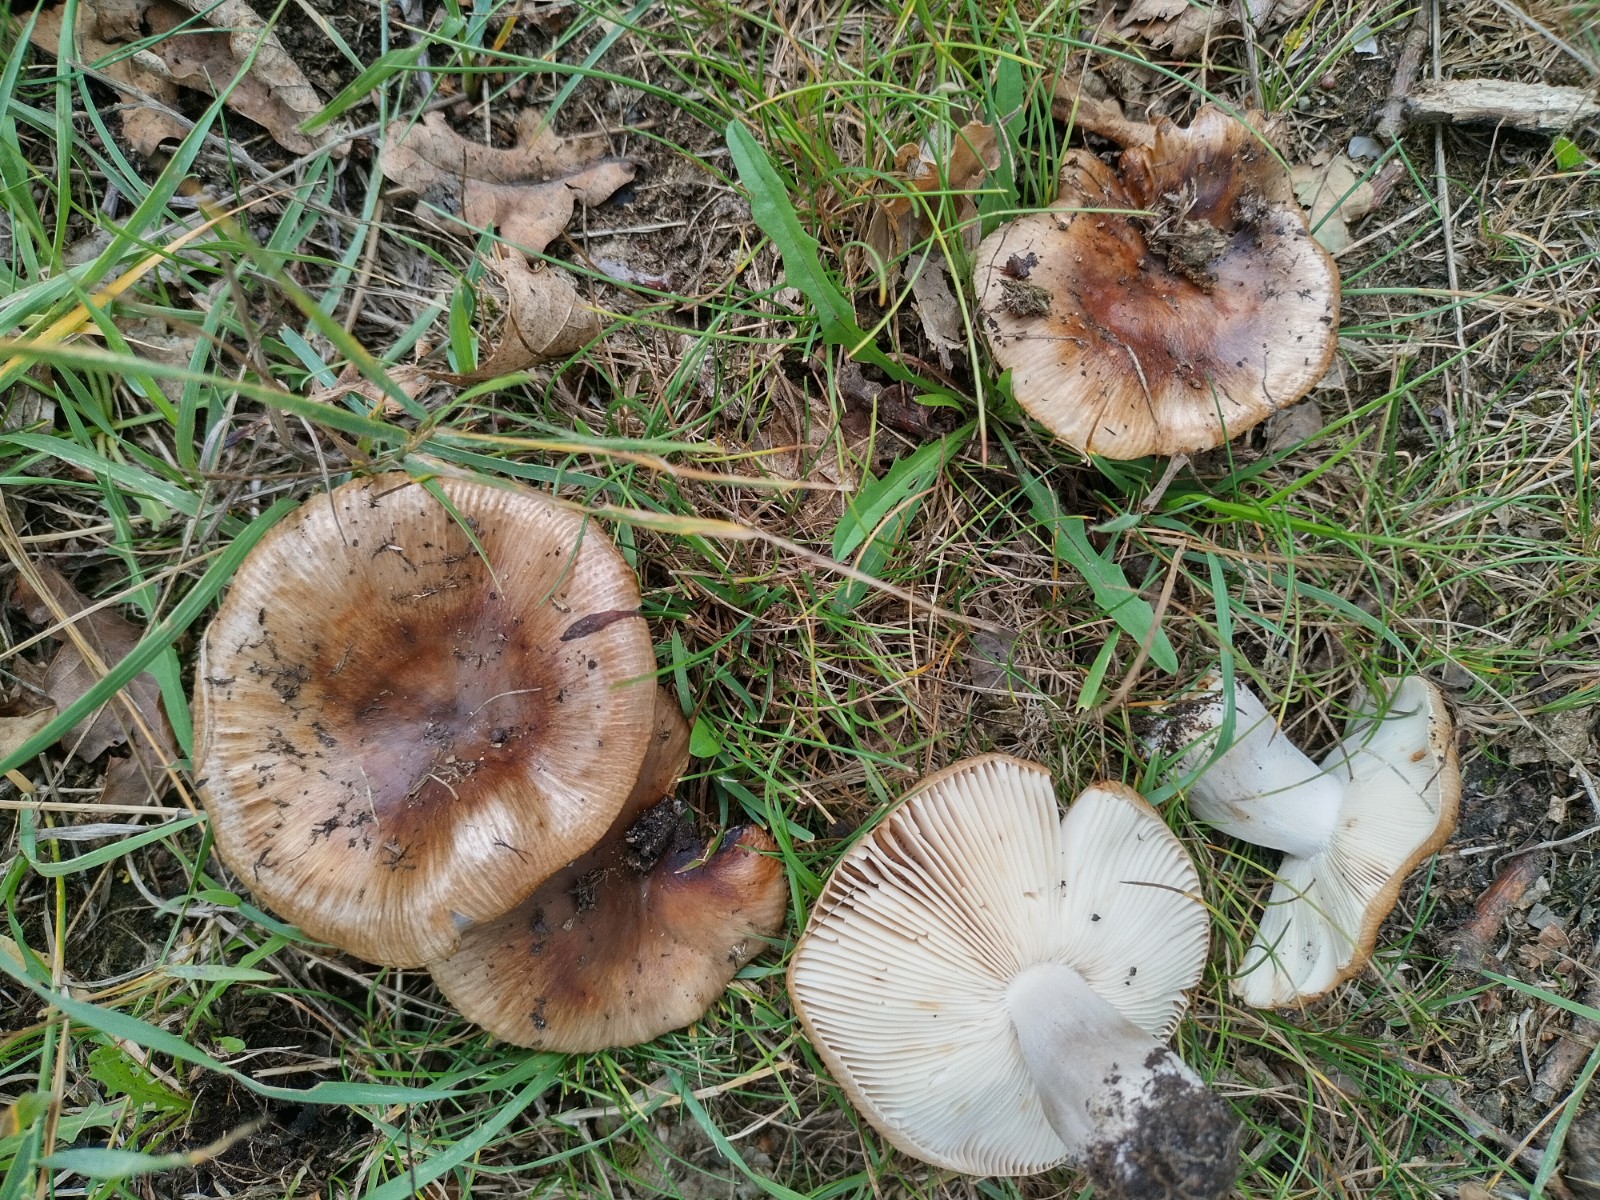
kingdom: Fungi
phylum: Basidiomycota
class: Agaricomycetes
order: Russulales
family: Russulaceae
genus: Russula
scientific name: Russula
